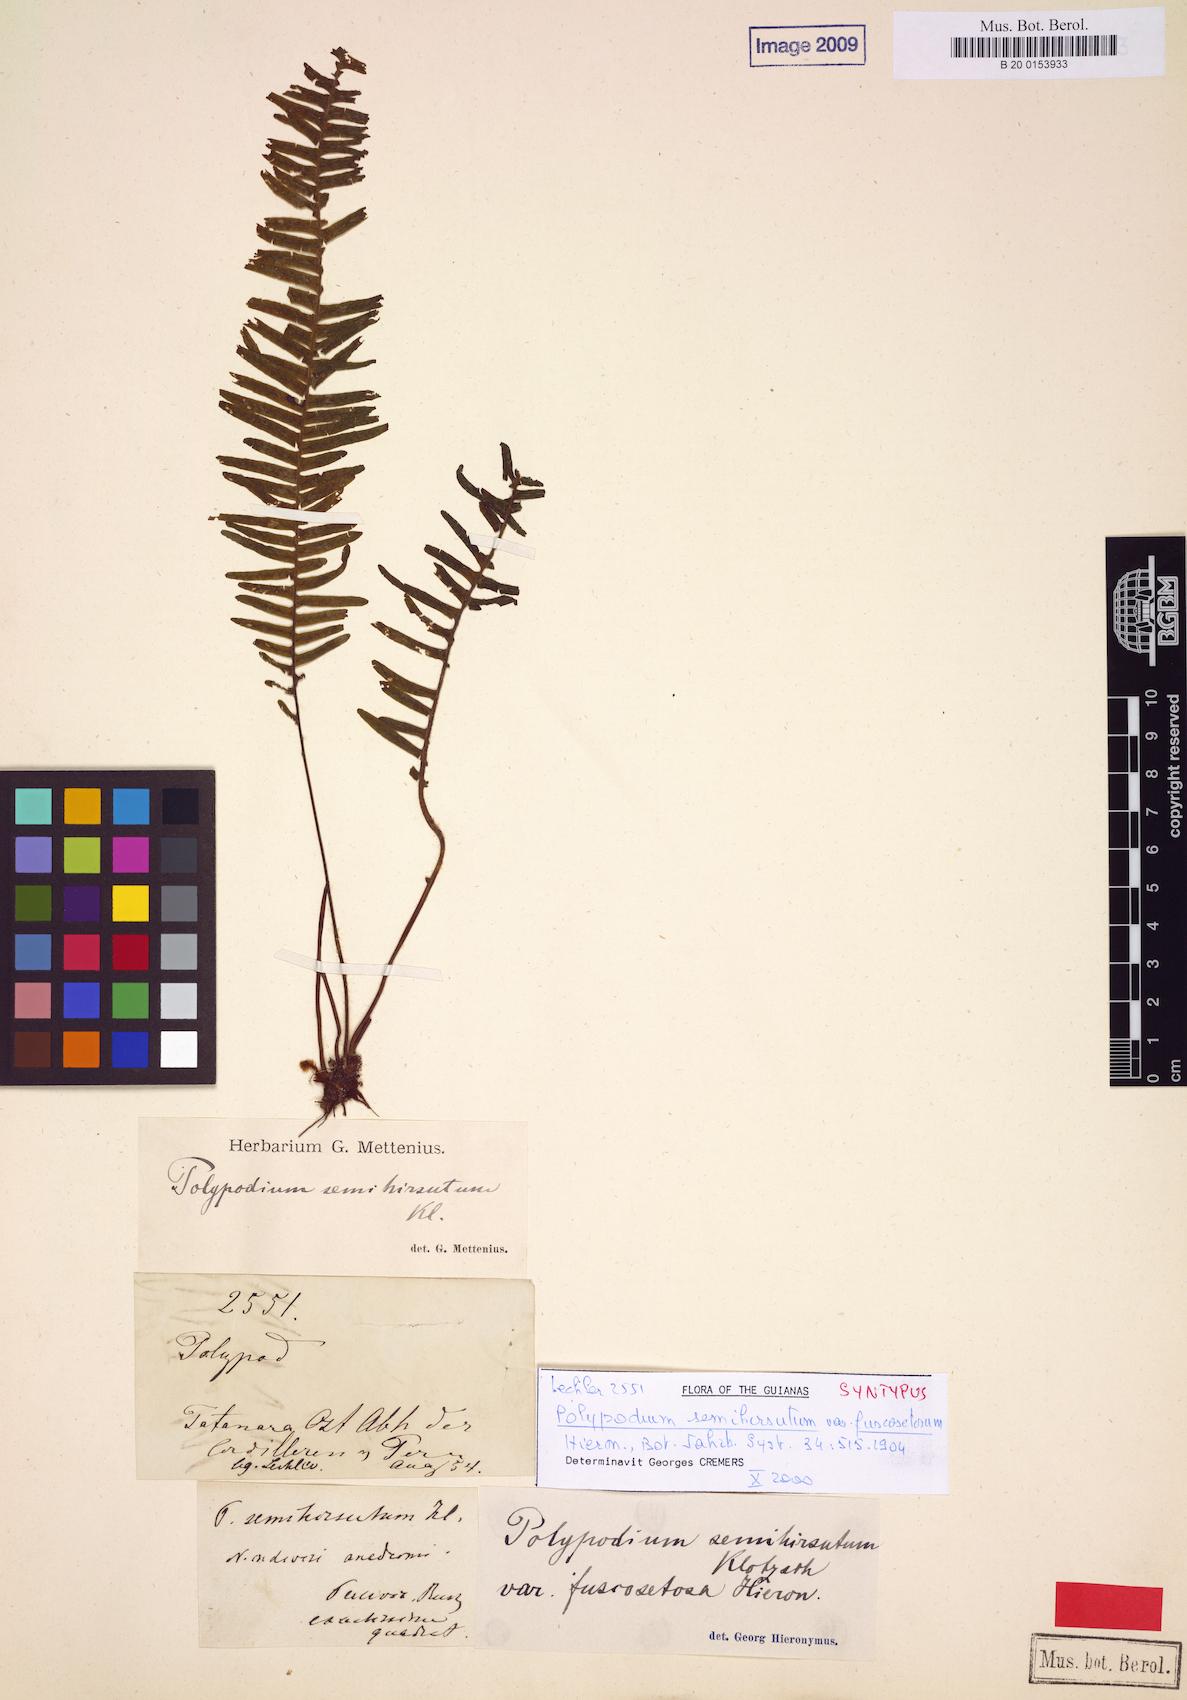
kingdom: Plantae
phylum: Tracheophyta
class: Polypodiopsida
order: Polypodiales
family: Polypodiaceae
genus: Mycopteris
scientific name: Mycopteris semihirsuta
